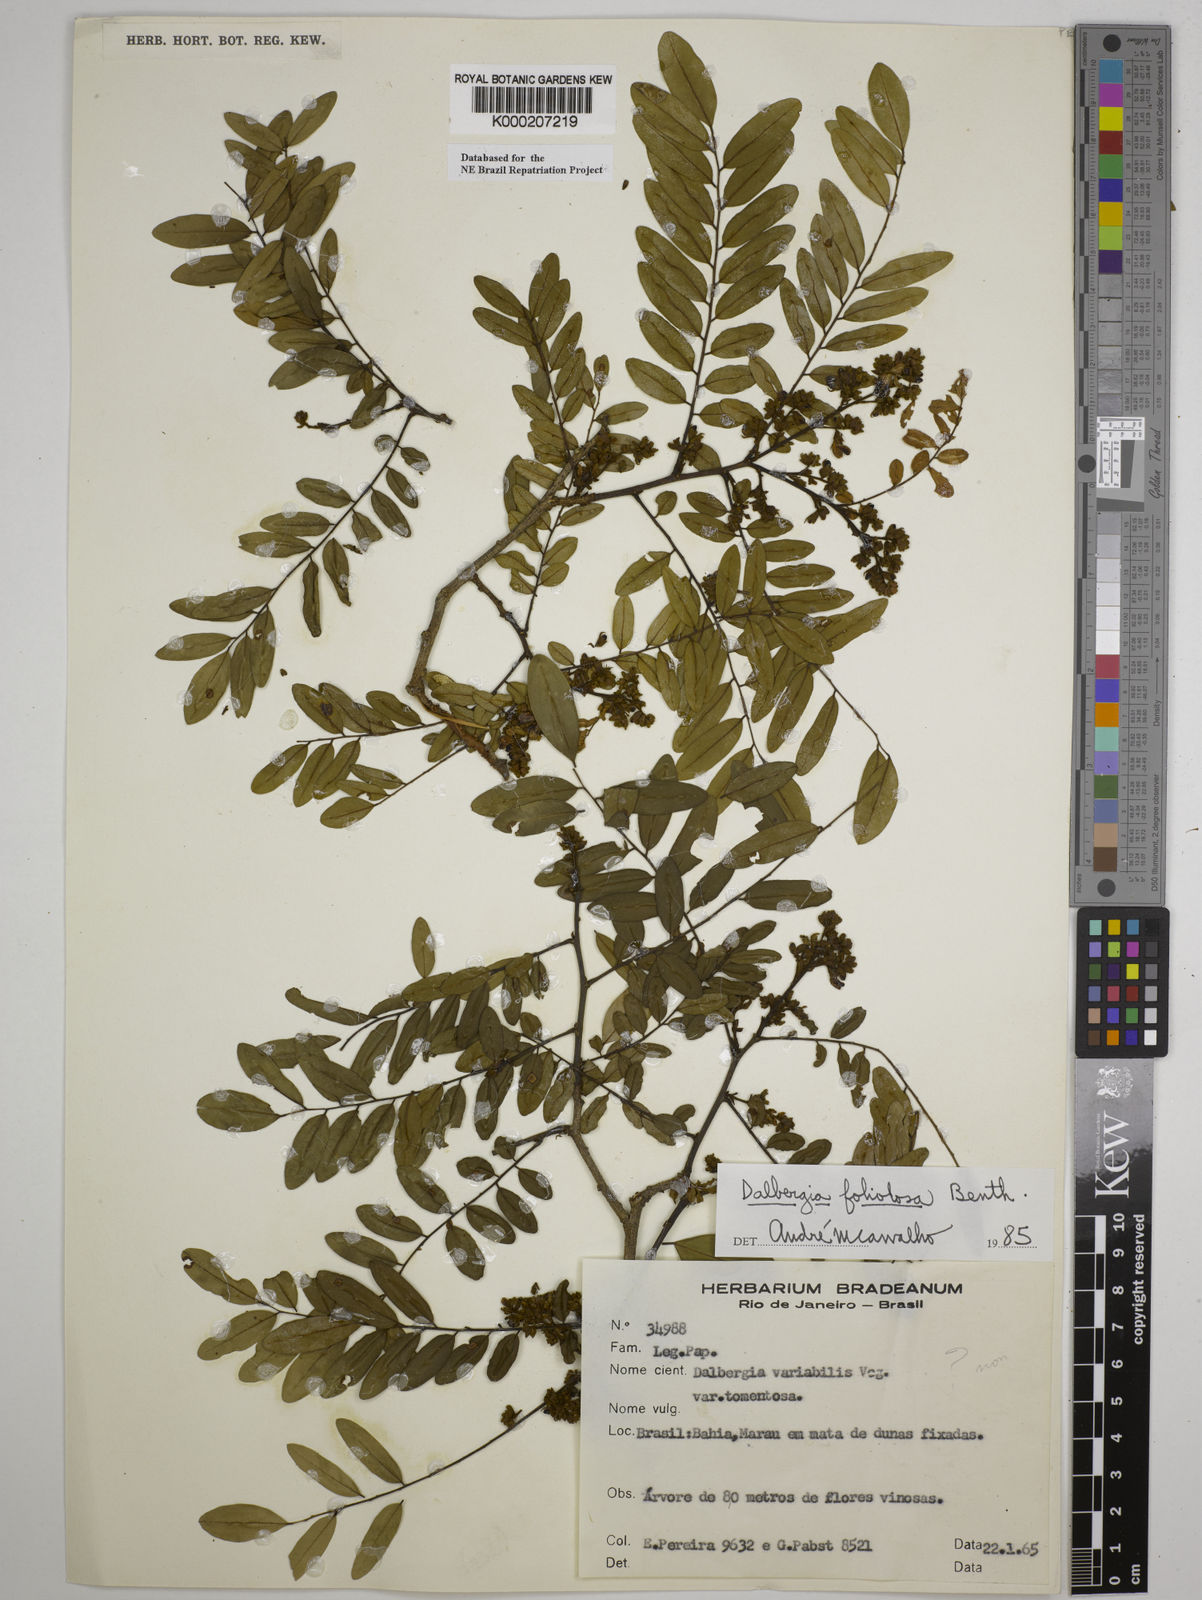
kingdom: Plantae
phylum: Tracheophyta
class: Magnoliopsida
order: Fabales
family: Fabaceae
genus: Dalbergia
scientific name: Dalbergia foliolosa
